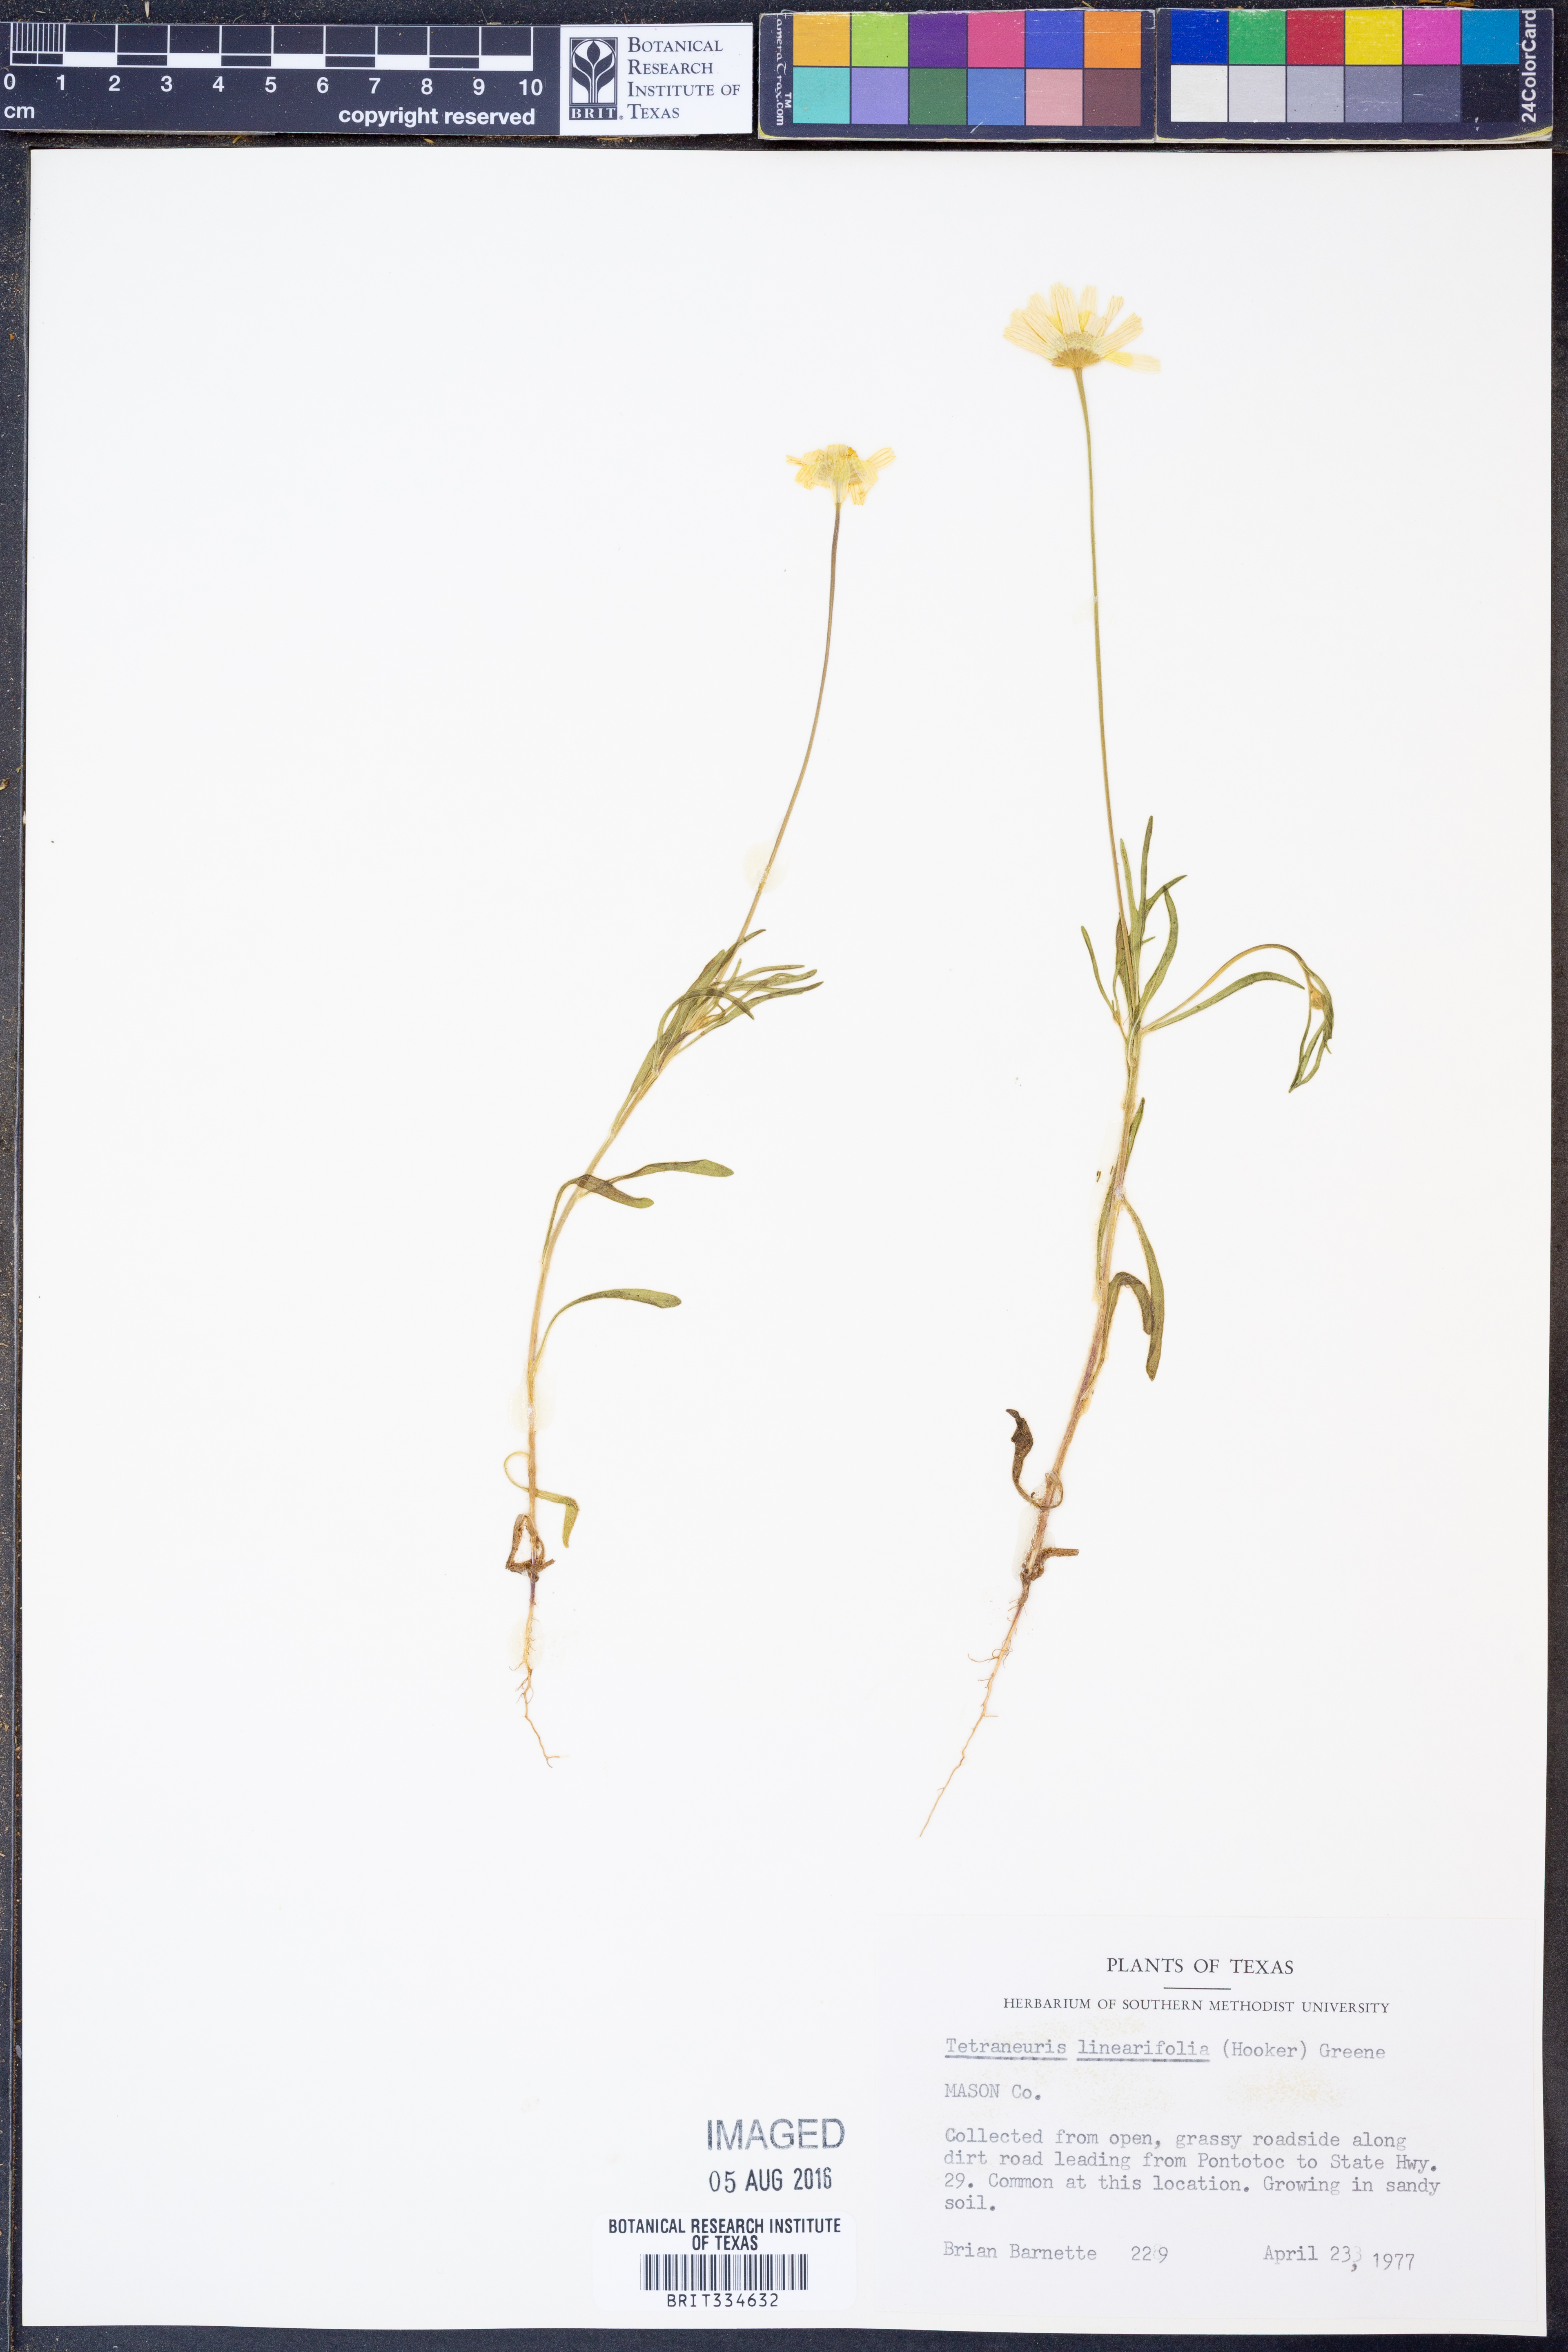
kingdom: Plantae
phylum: Tracheophyta
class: Magnoliopsida
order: Asterales
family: Asteraceae
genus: Tetraneuris
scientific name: Tetraneuris linearifolia
